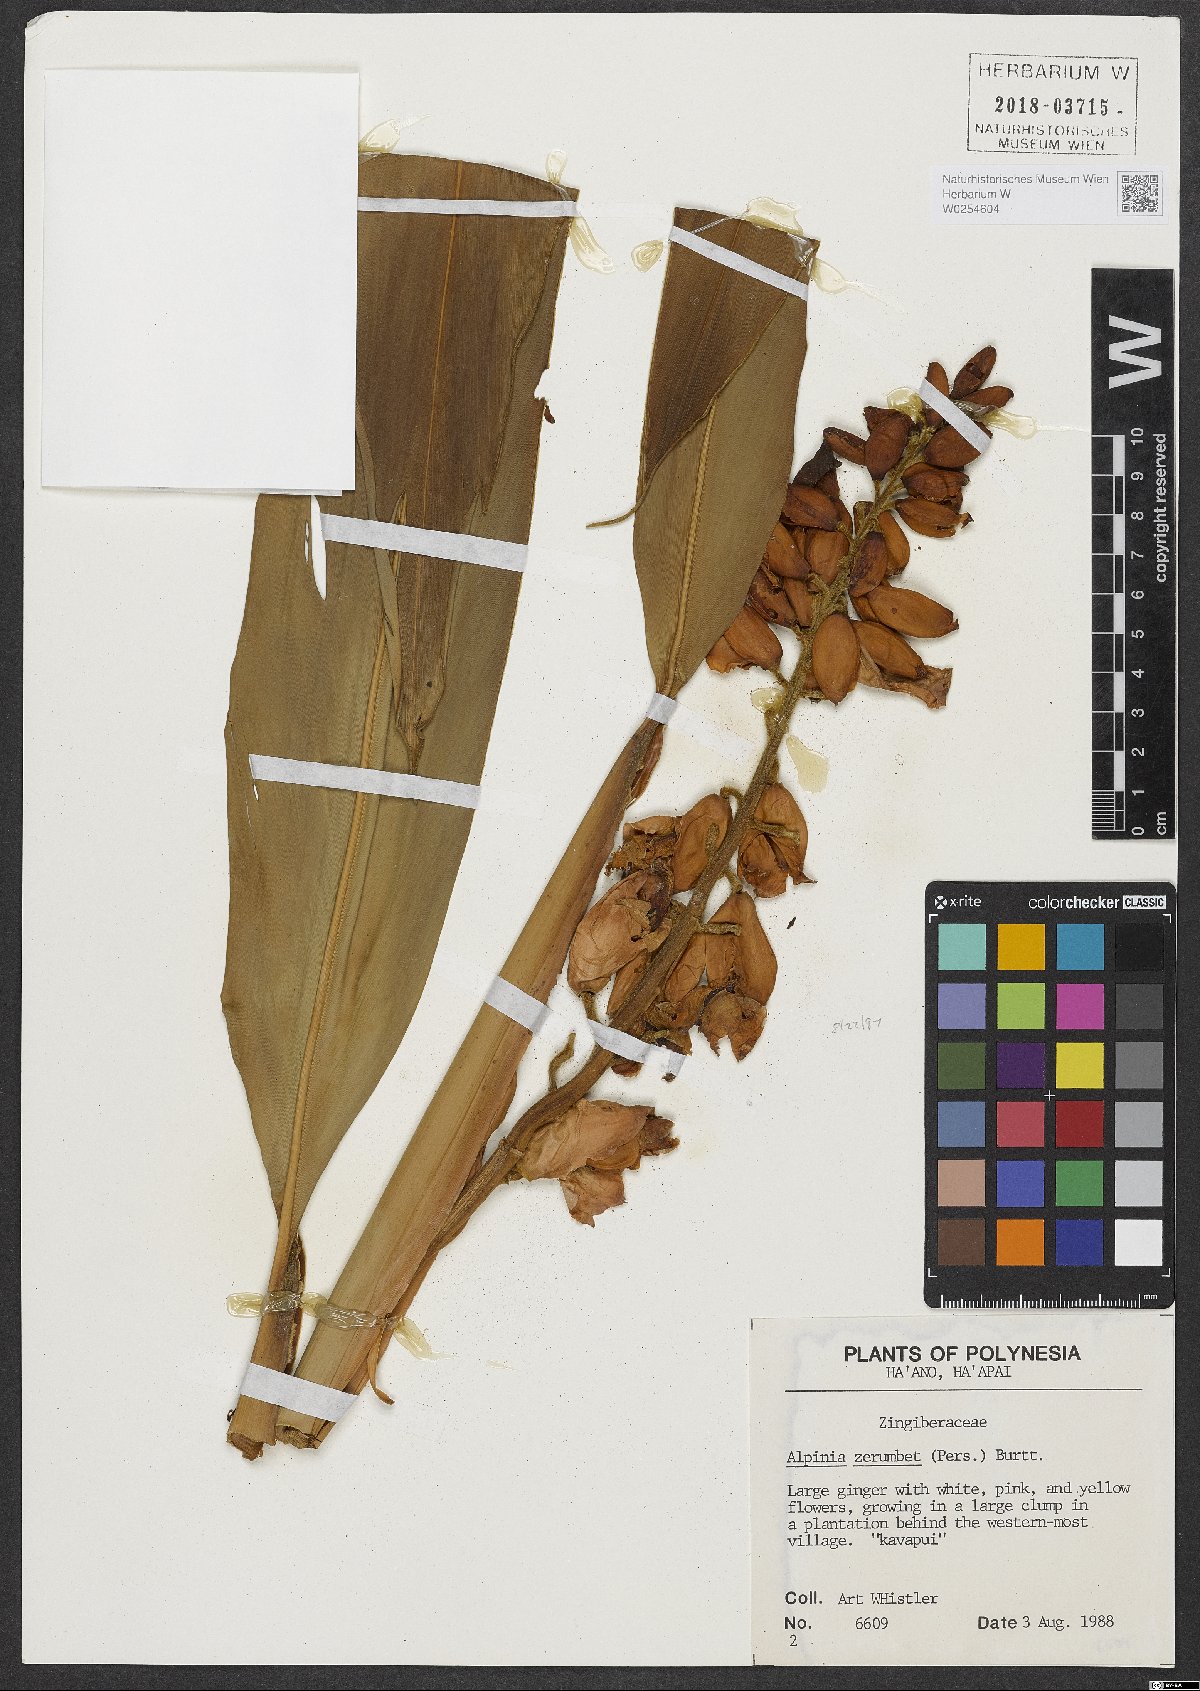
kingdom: Plantae
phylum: Tracheophyta
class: Liliopsida
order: Zingiberales
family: Zingiberaceae
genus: Alpinia
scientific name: Alpinia zerumbet
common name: Shellplant
